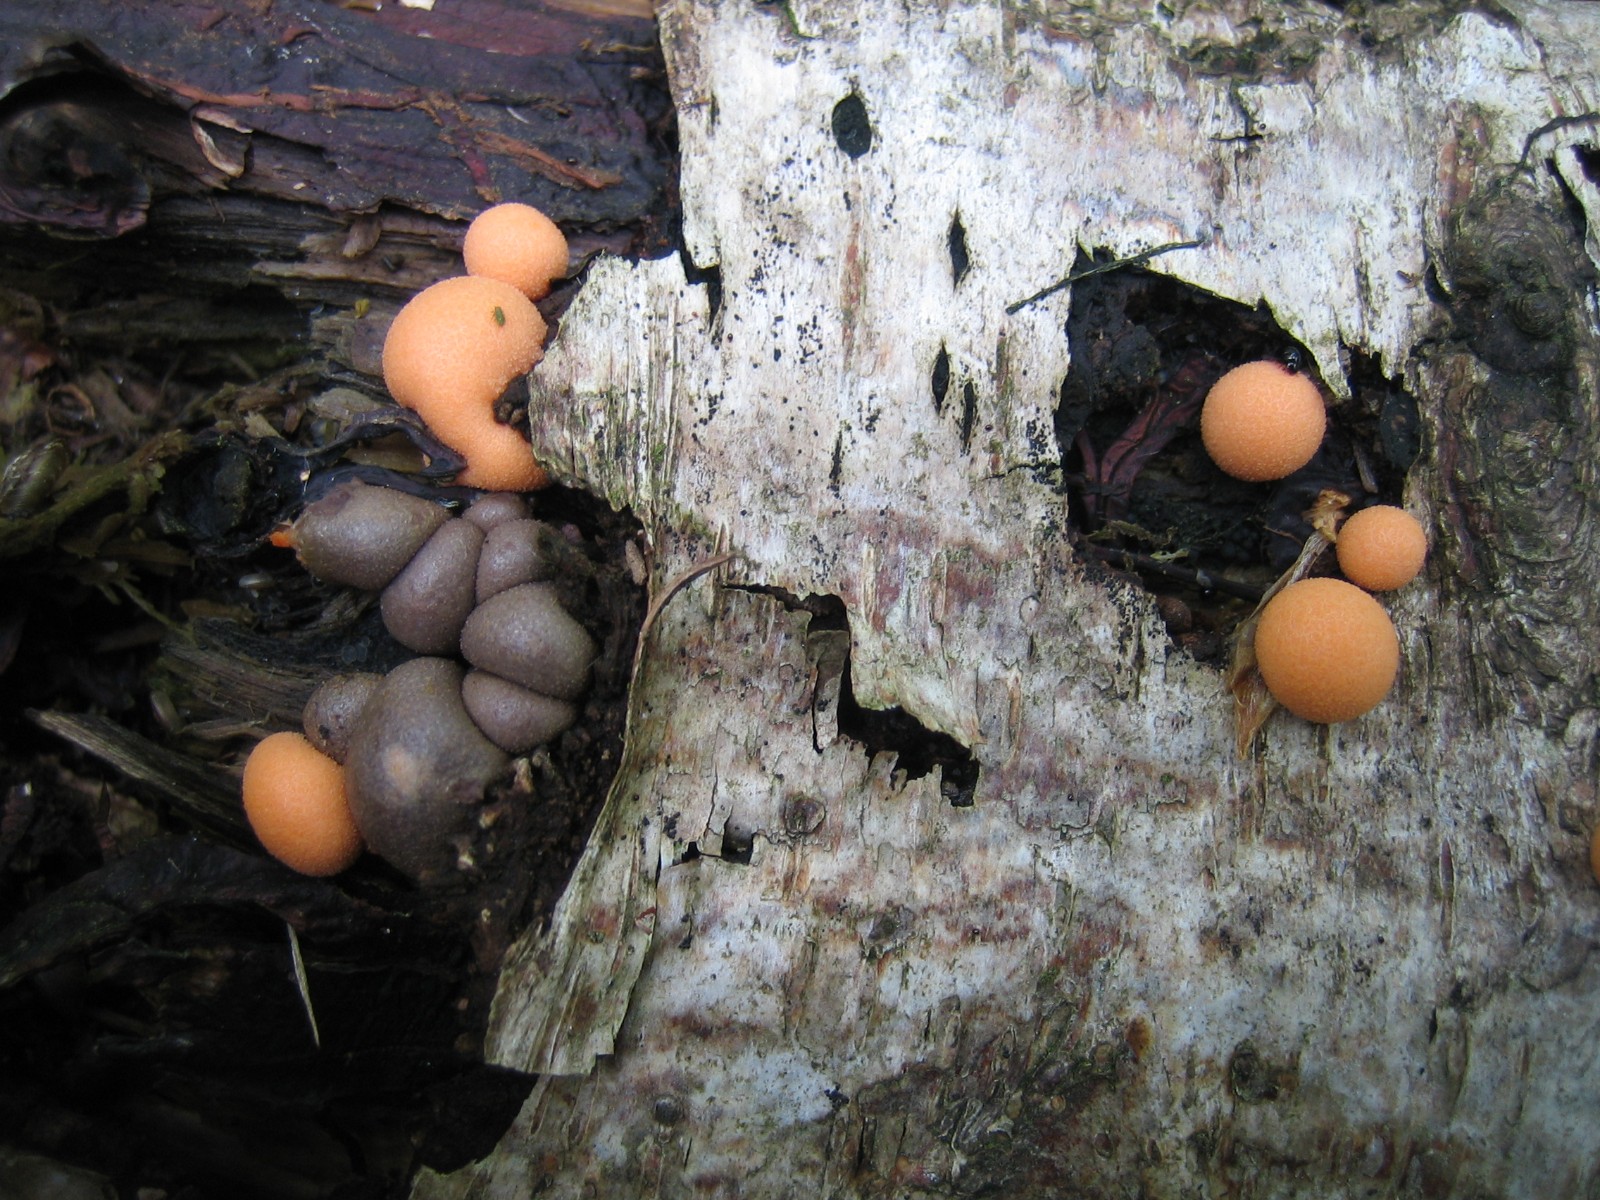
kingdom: Protozoa
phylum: Mycetozoa
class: Myxomycetes
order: Cribrariales
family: Tubiferaceae
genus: Lycogala
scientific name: Lycogala epidendrum
